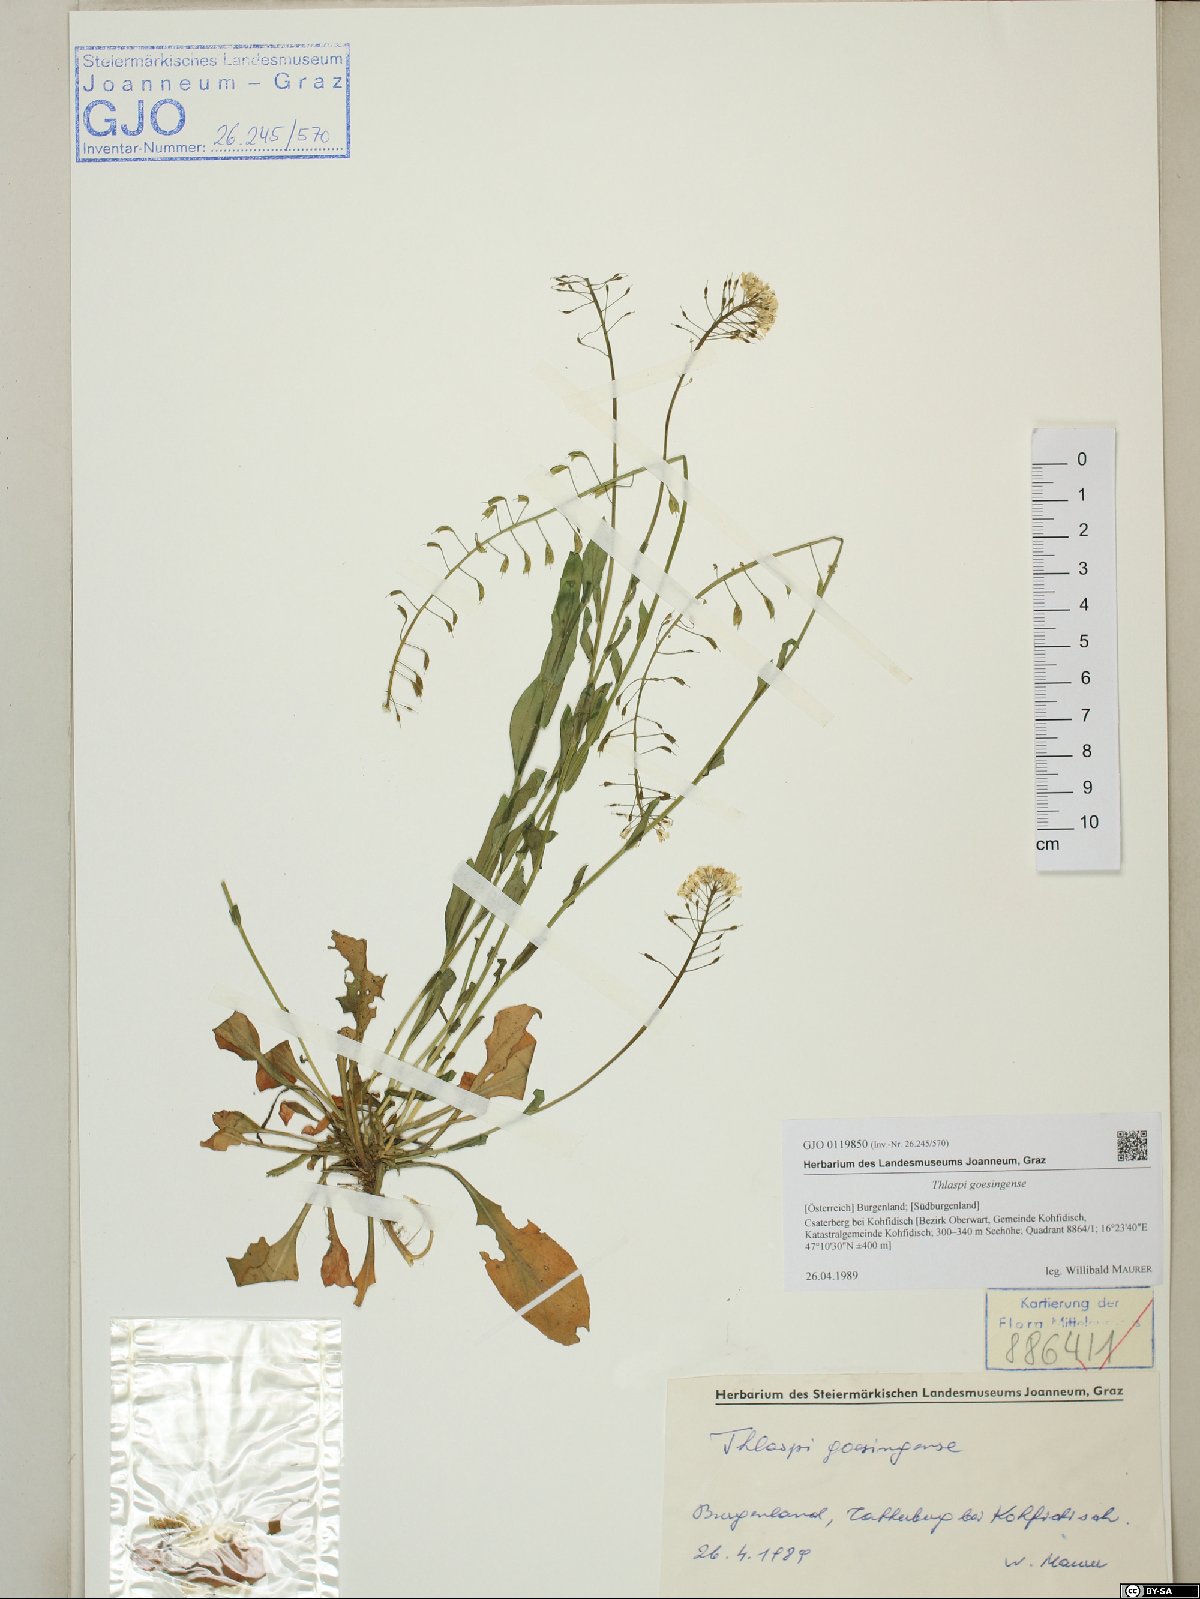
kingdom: Plantae
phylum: Tracheophyta
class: Magnoliopsida
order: Brassicales
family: Brassicaceae
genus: Noccaea
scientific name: Noccaea goesingensis
